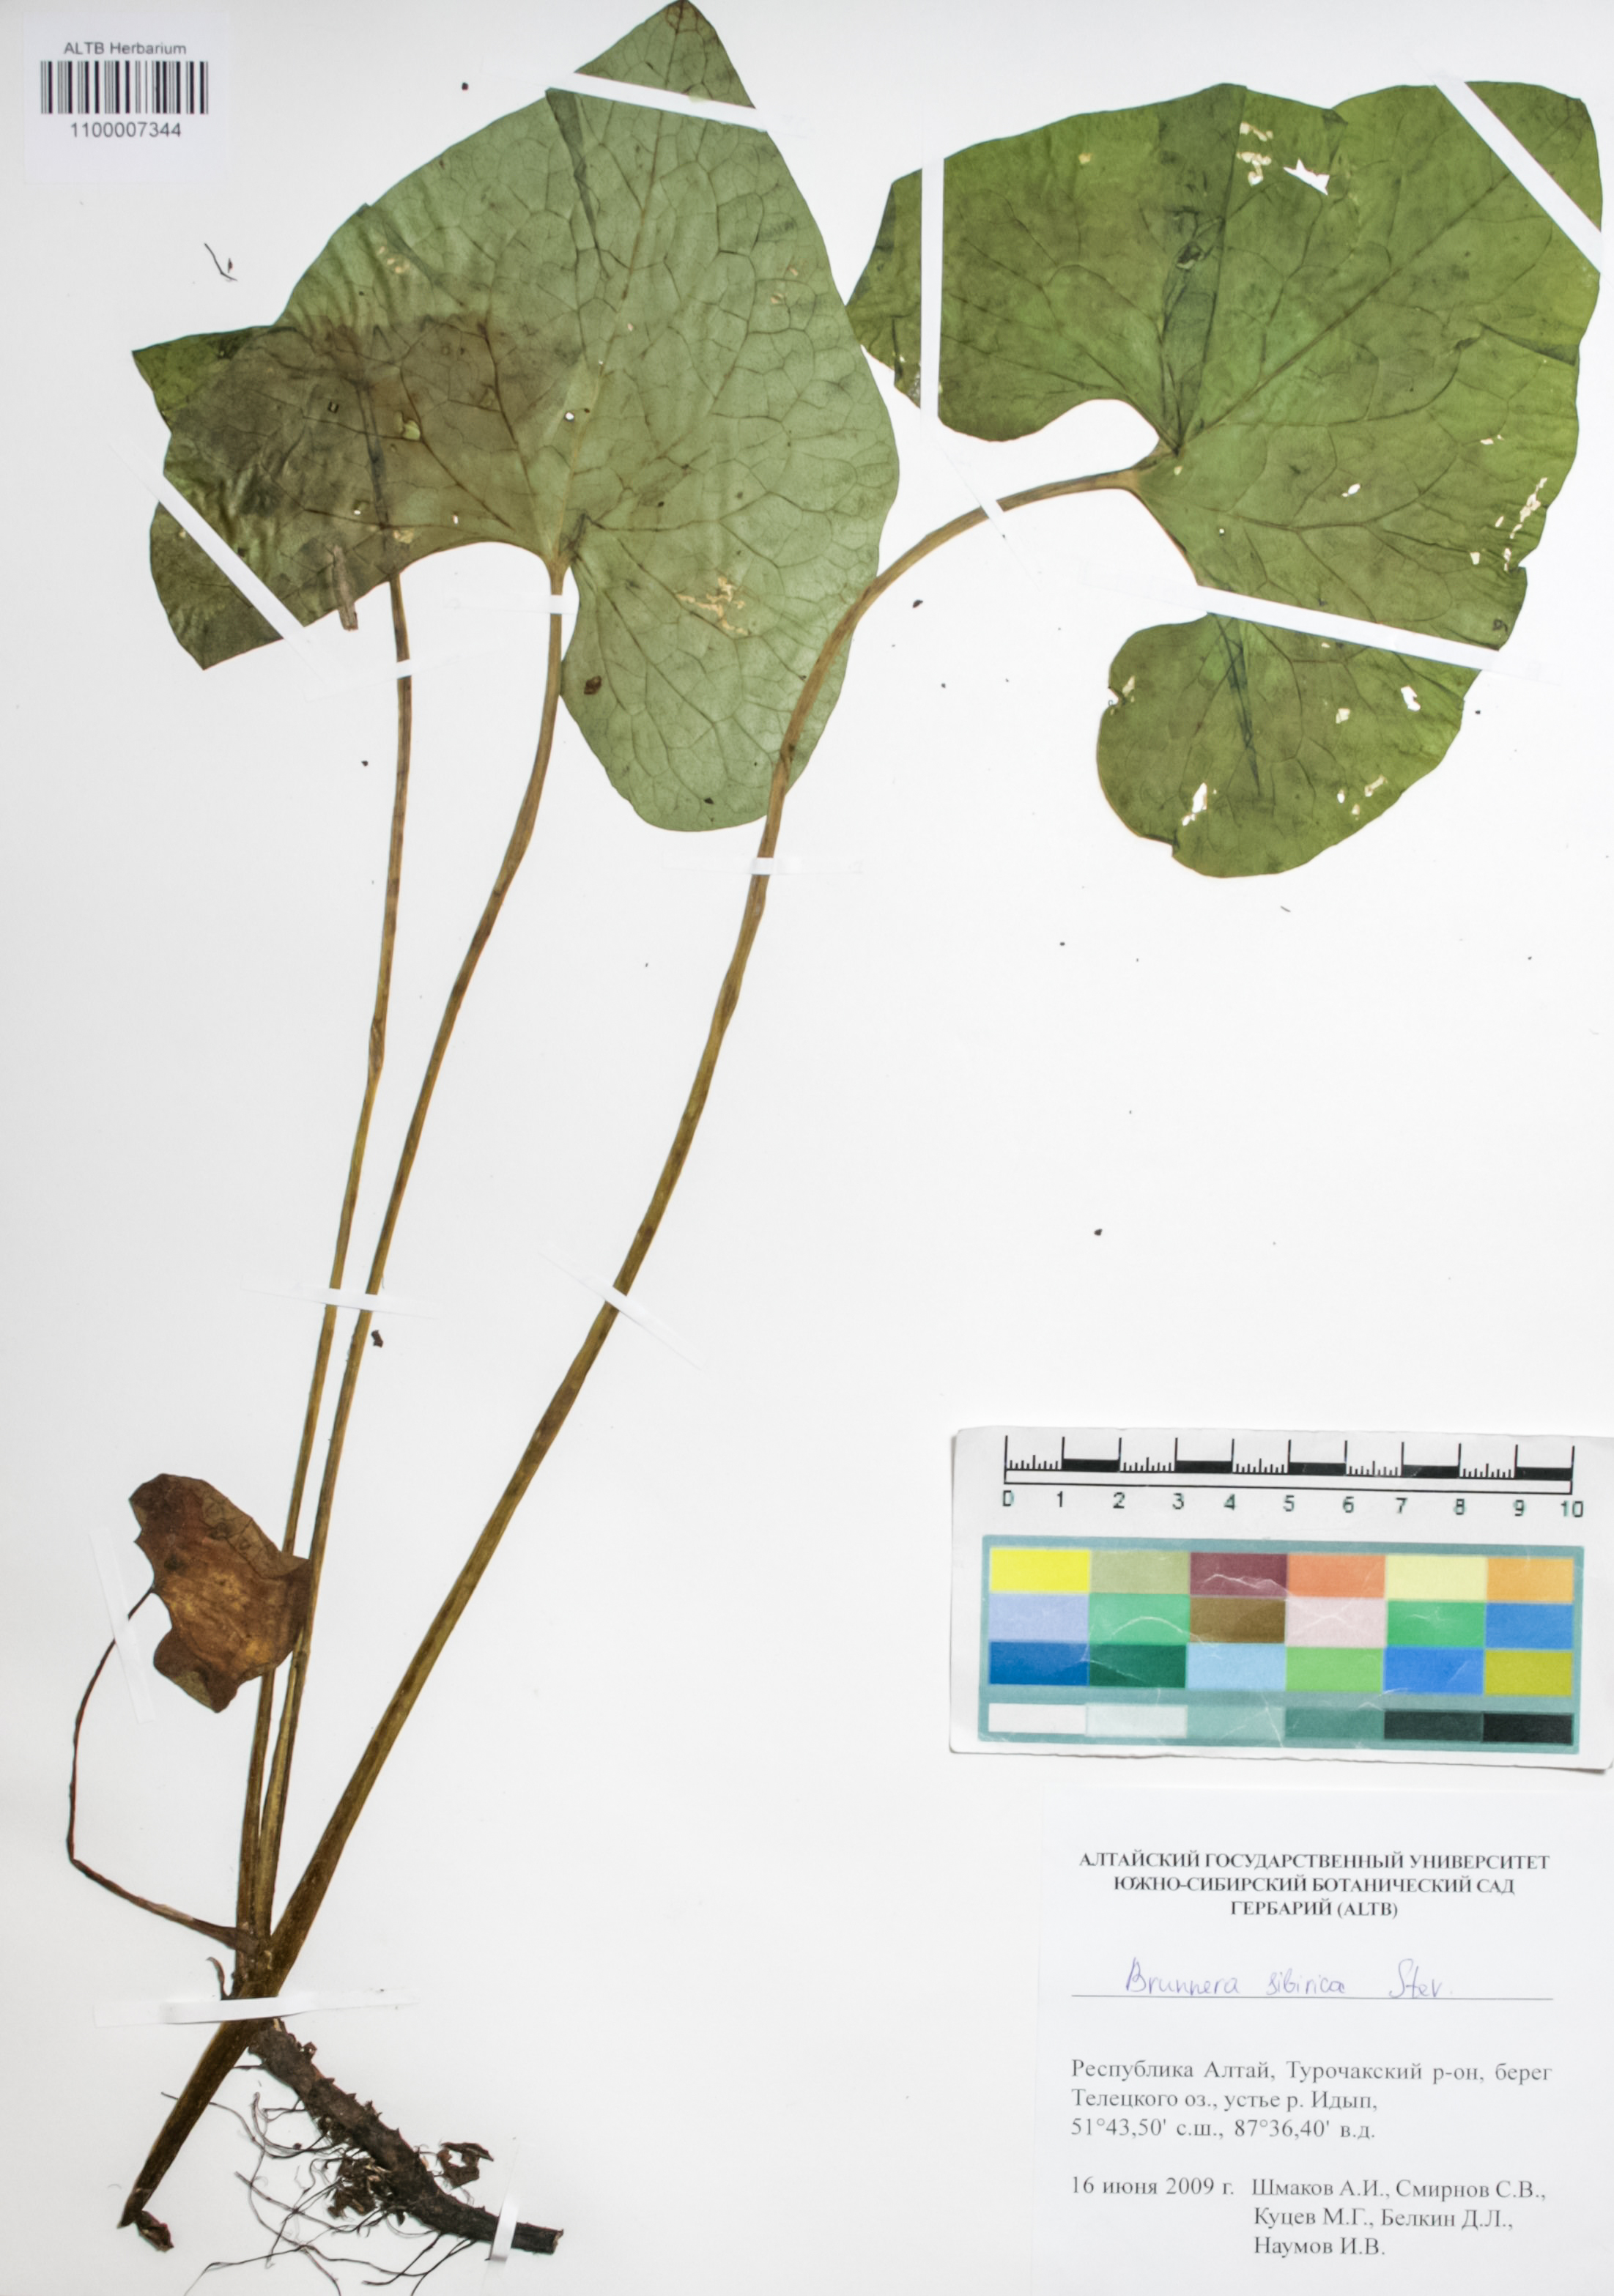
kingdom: Plantae
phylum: Tracheophyta
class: Magnoliopsida
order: Boraginales
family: Boraginaceae
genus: Brunnera
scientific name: Brunnera sibirica
